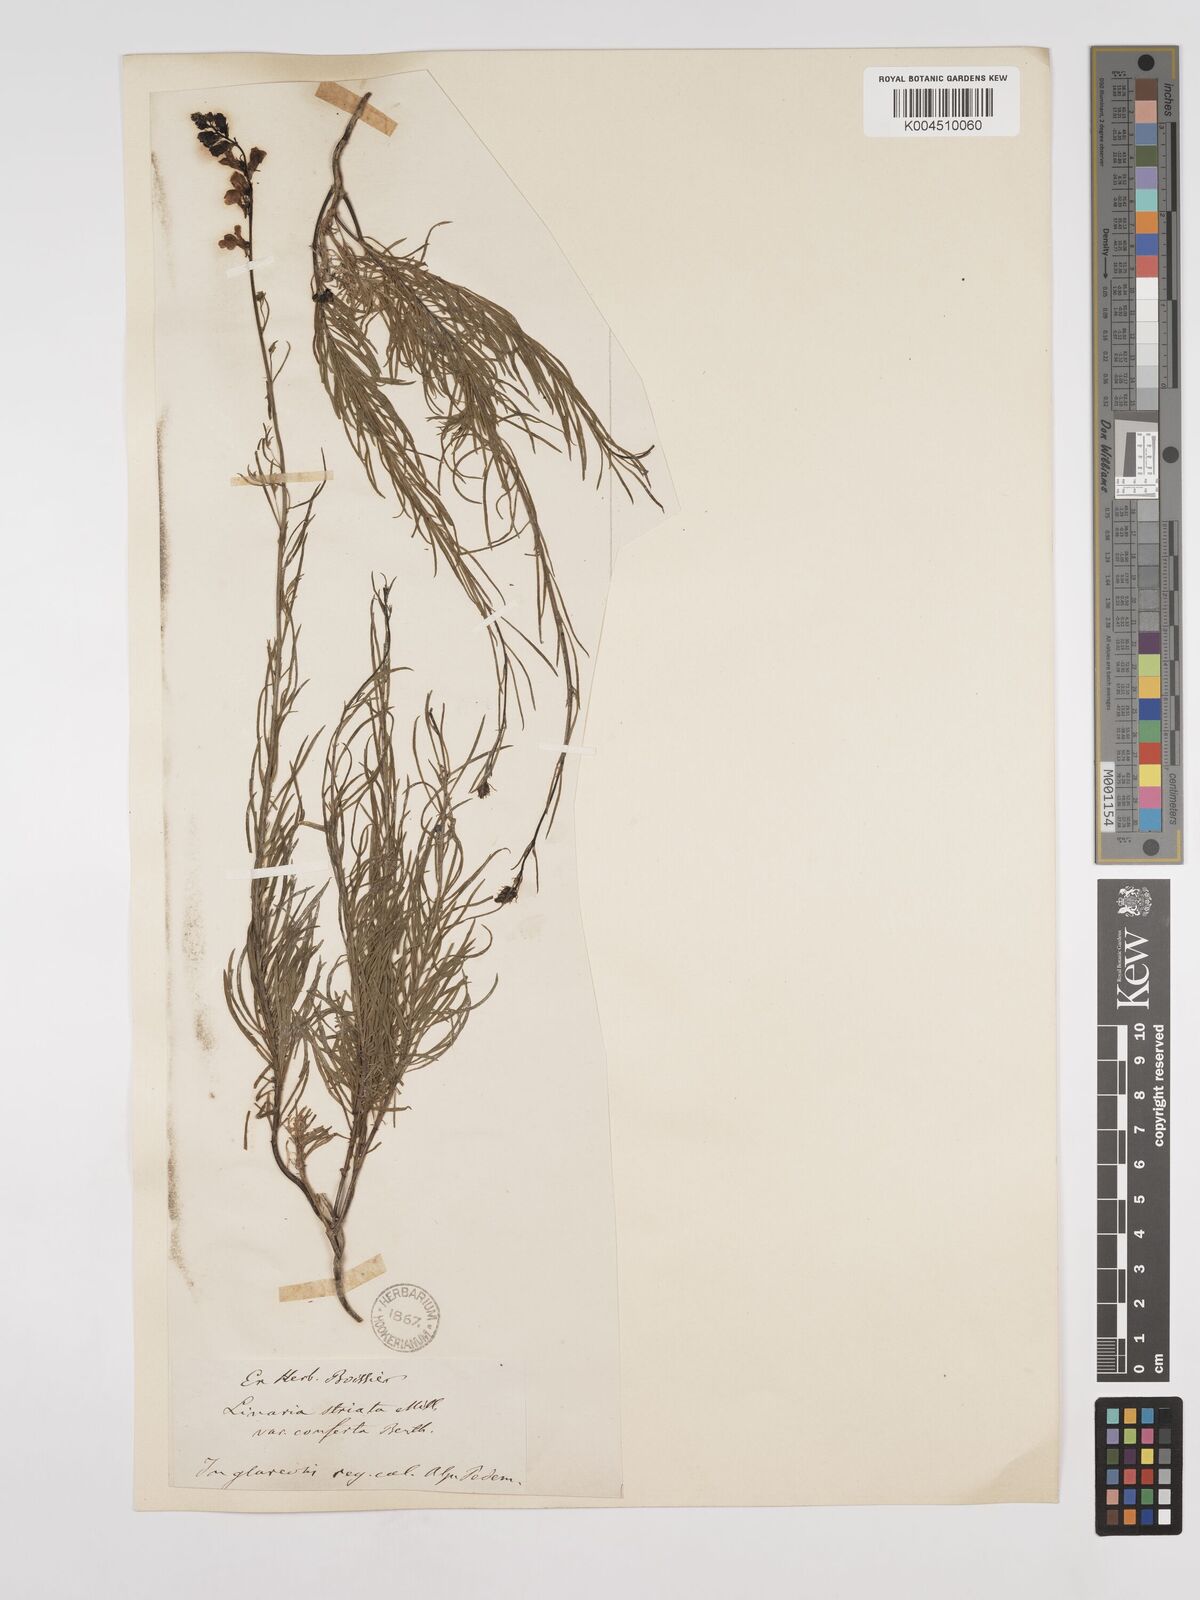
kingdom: Plantae
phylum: Tracheophyta
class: Magnoliopsida
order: Lamiales
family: Plantaginaceae
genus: Linaria
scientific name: Linaria repens
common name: Pale toadflax
